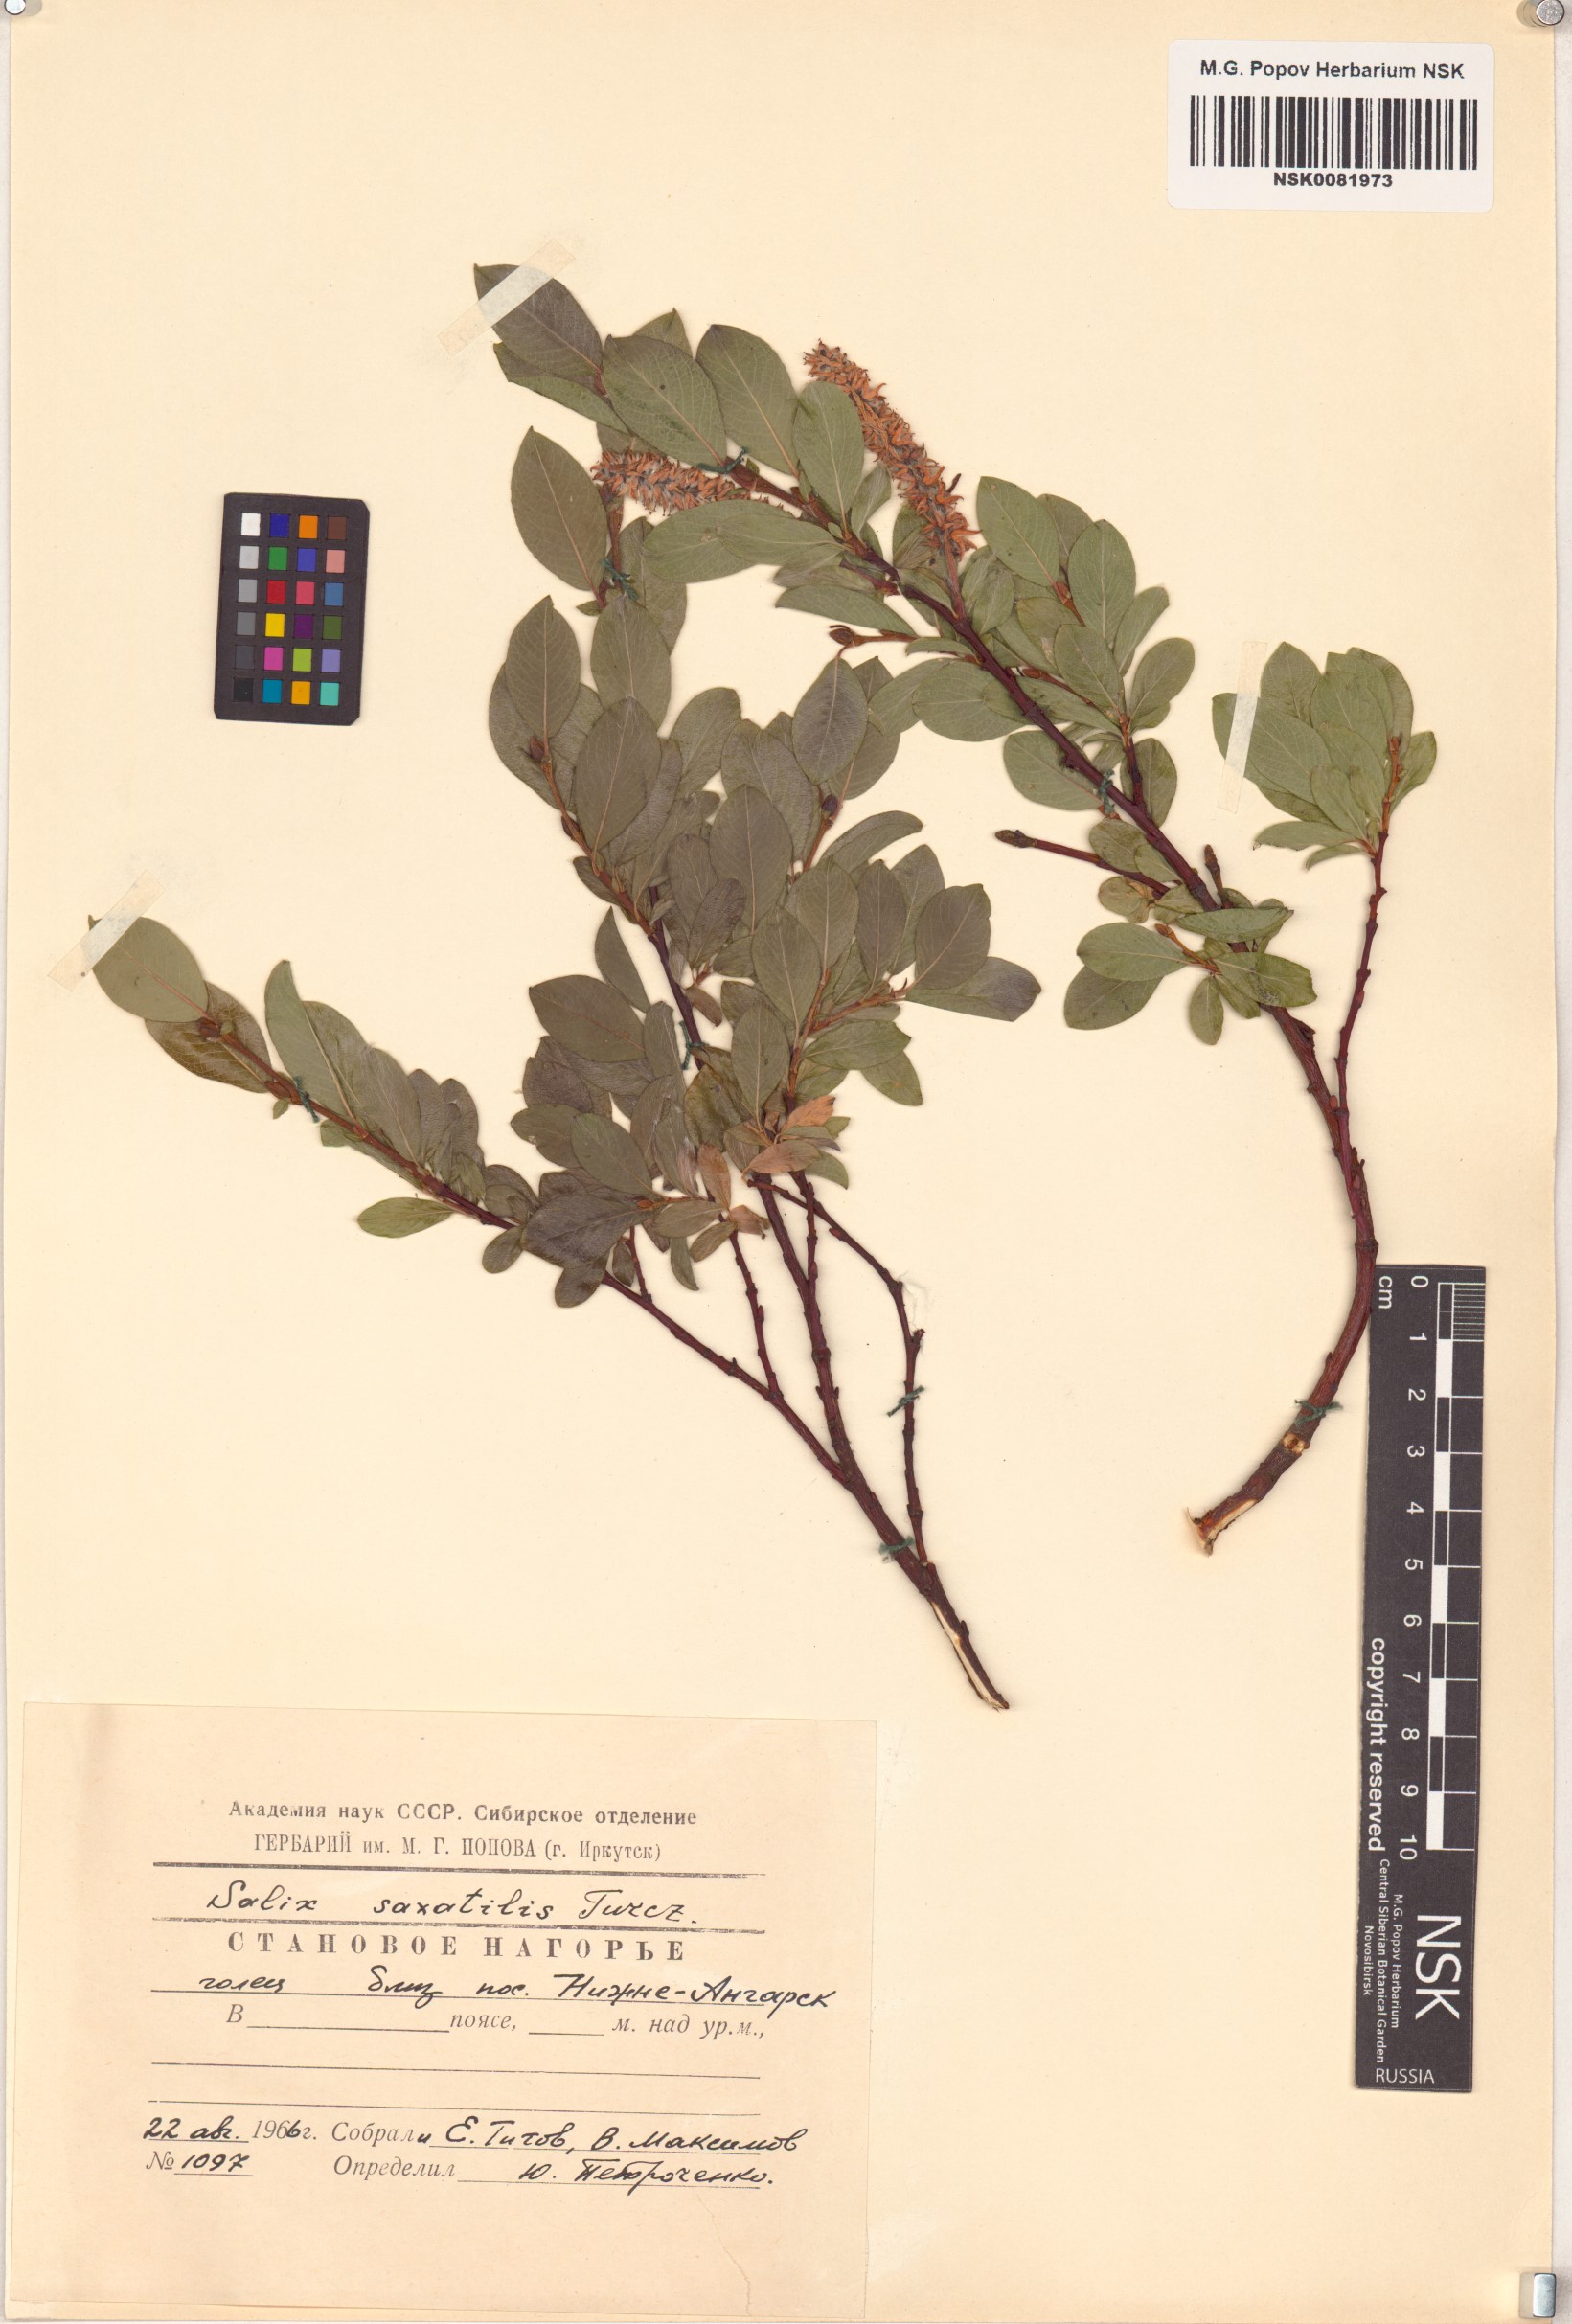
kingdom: Plantae
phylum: Tracheophyta
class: Magnoliopsida
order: Malpighiales
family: Salicaceae
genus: Salix
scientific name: Salix saxatilis
